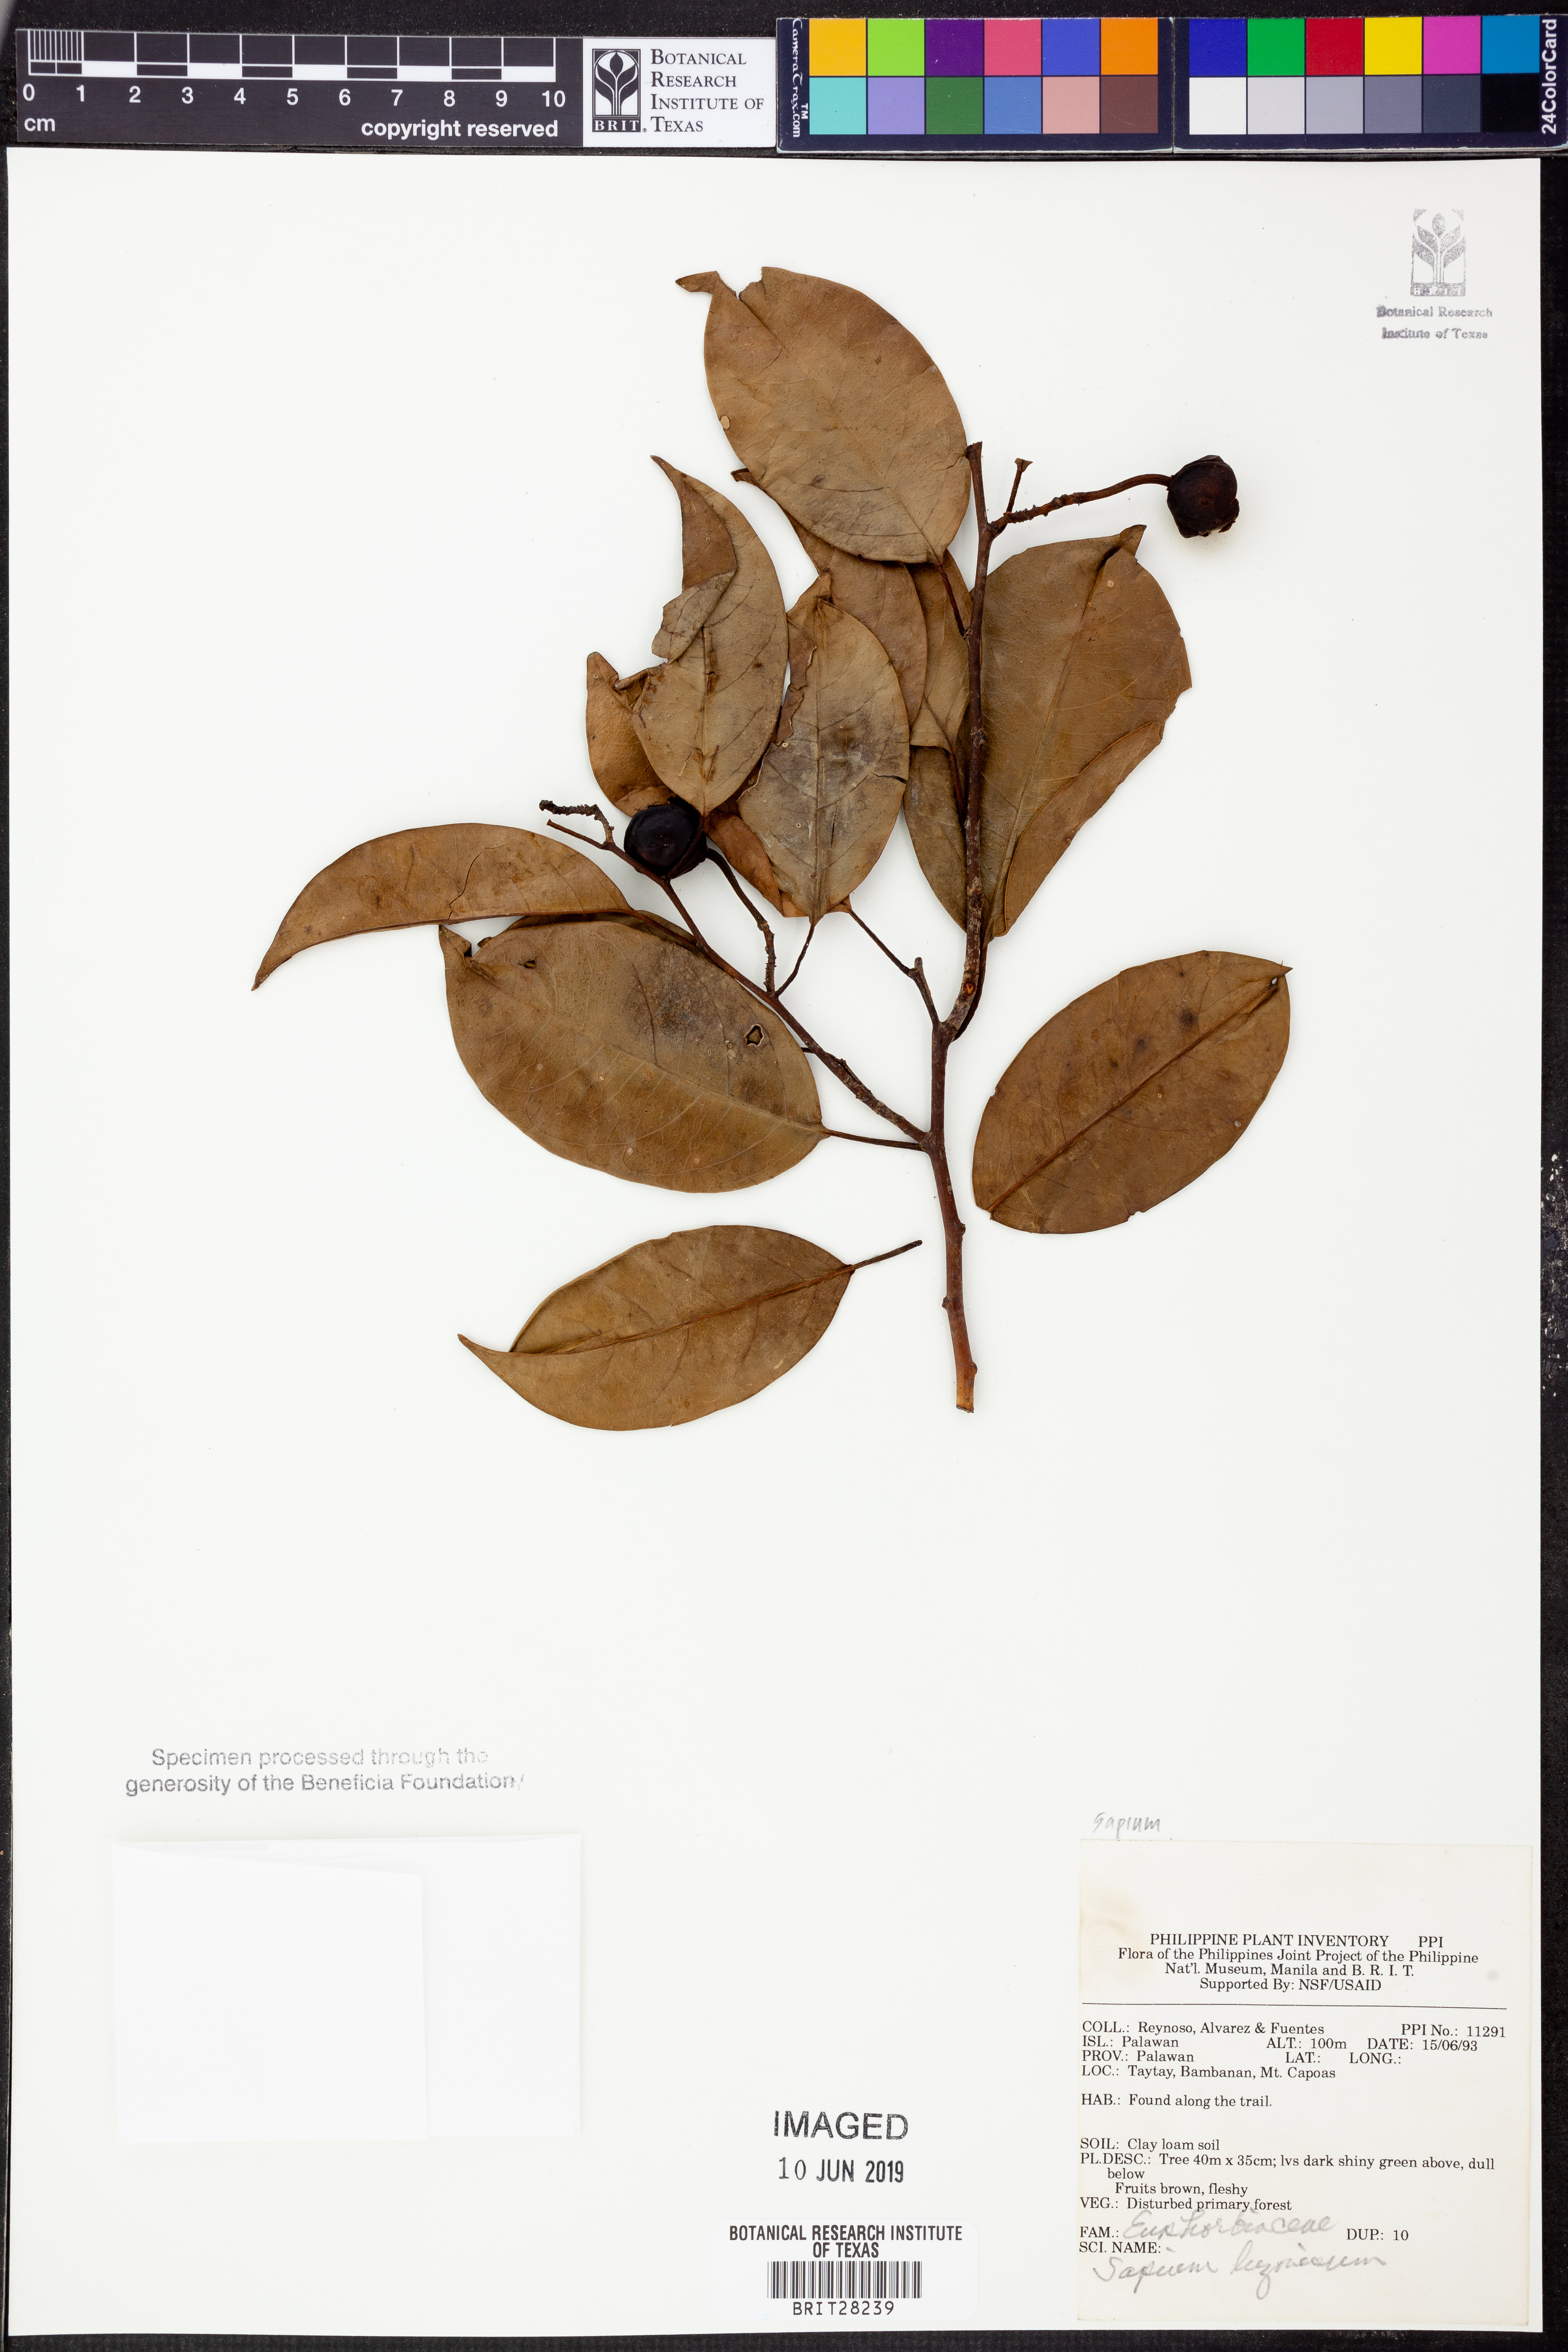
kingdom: Plantae
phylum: Tracheophyta
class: Magnoliopsida
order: Malpighiales
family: Euphorbiaceae
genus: Balakata
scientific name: Balakata luzonica
